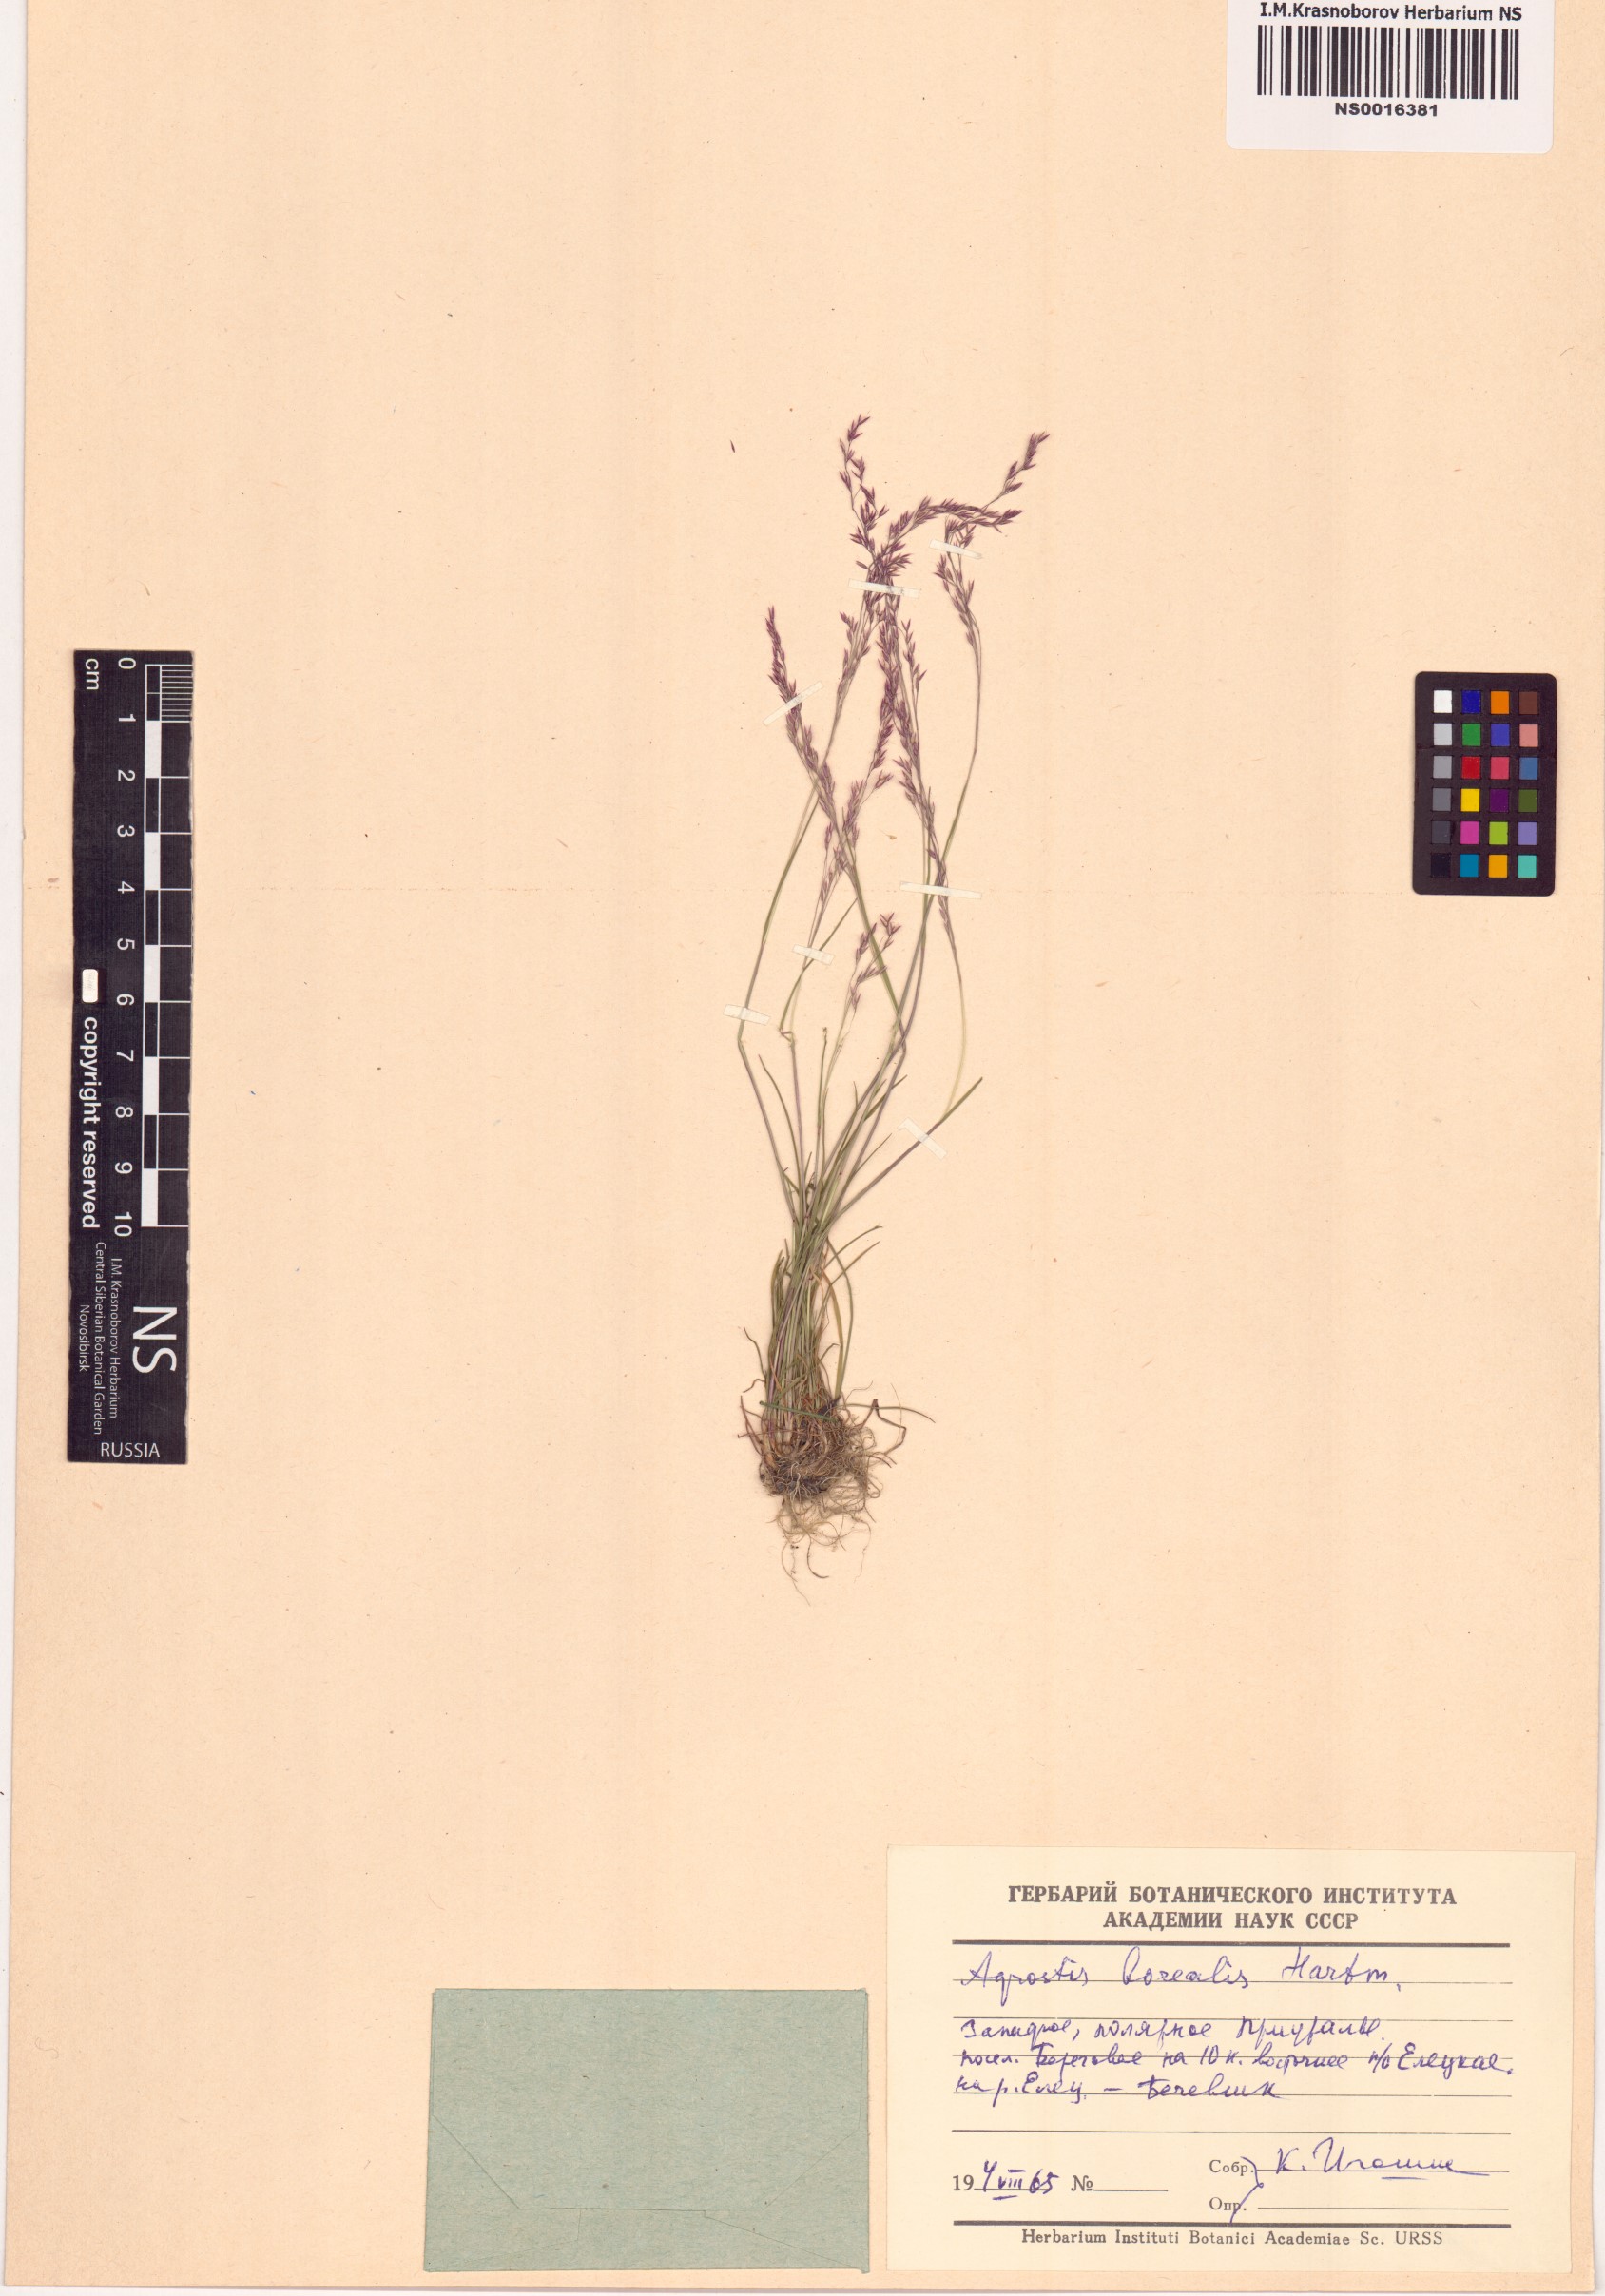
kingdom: Plantae
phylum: Tracheophyta
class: Liliopsida
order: Poales
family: Poaceae
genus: Agrostis
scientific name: Agrostis mertensii
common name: Northern bent
